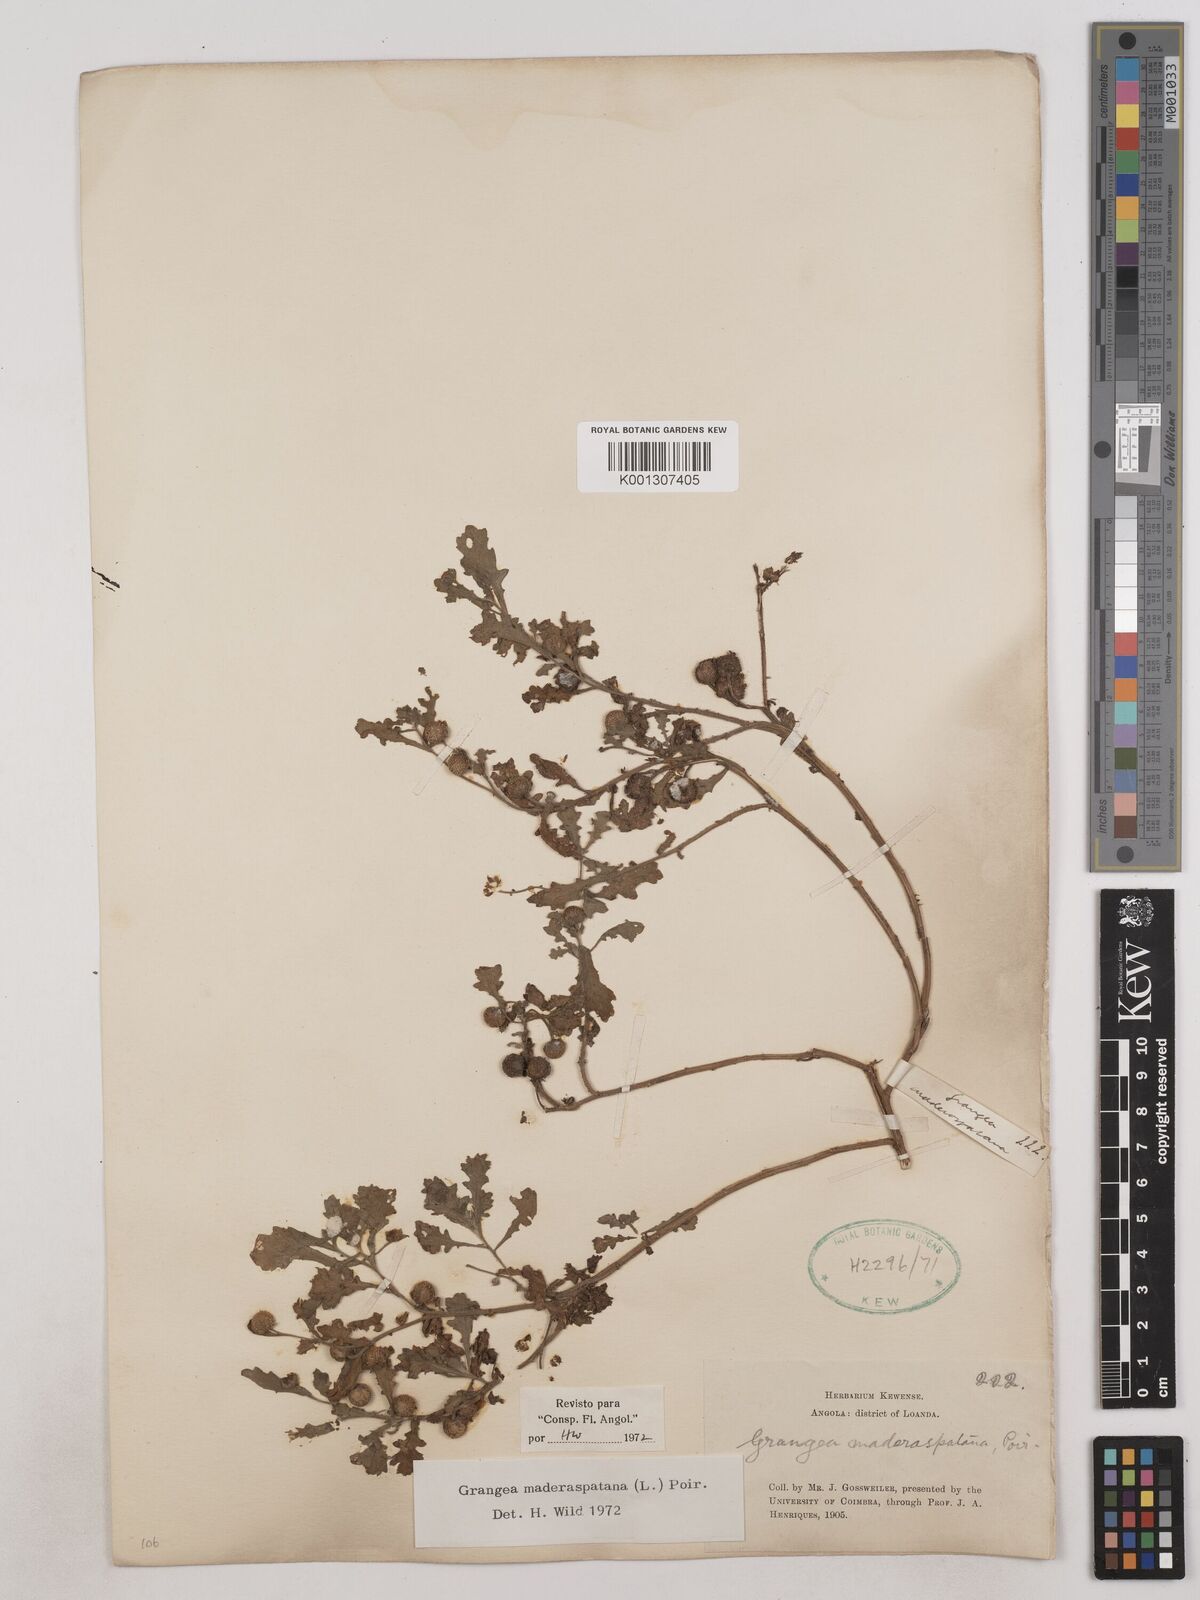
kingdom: Plantae
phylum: Tracheophyta
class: Magnoliopsida
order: Asterales
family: Asteraceae
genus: Grangea
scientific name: Grangea maderaspatana
